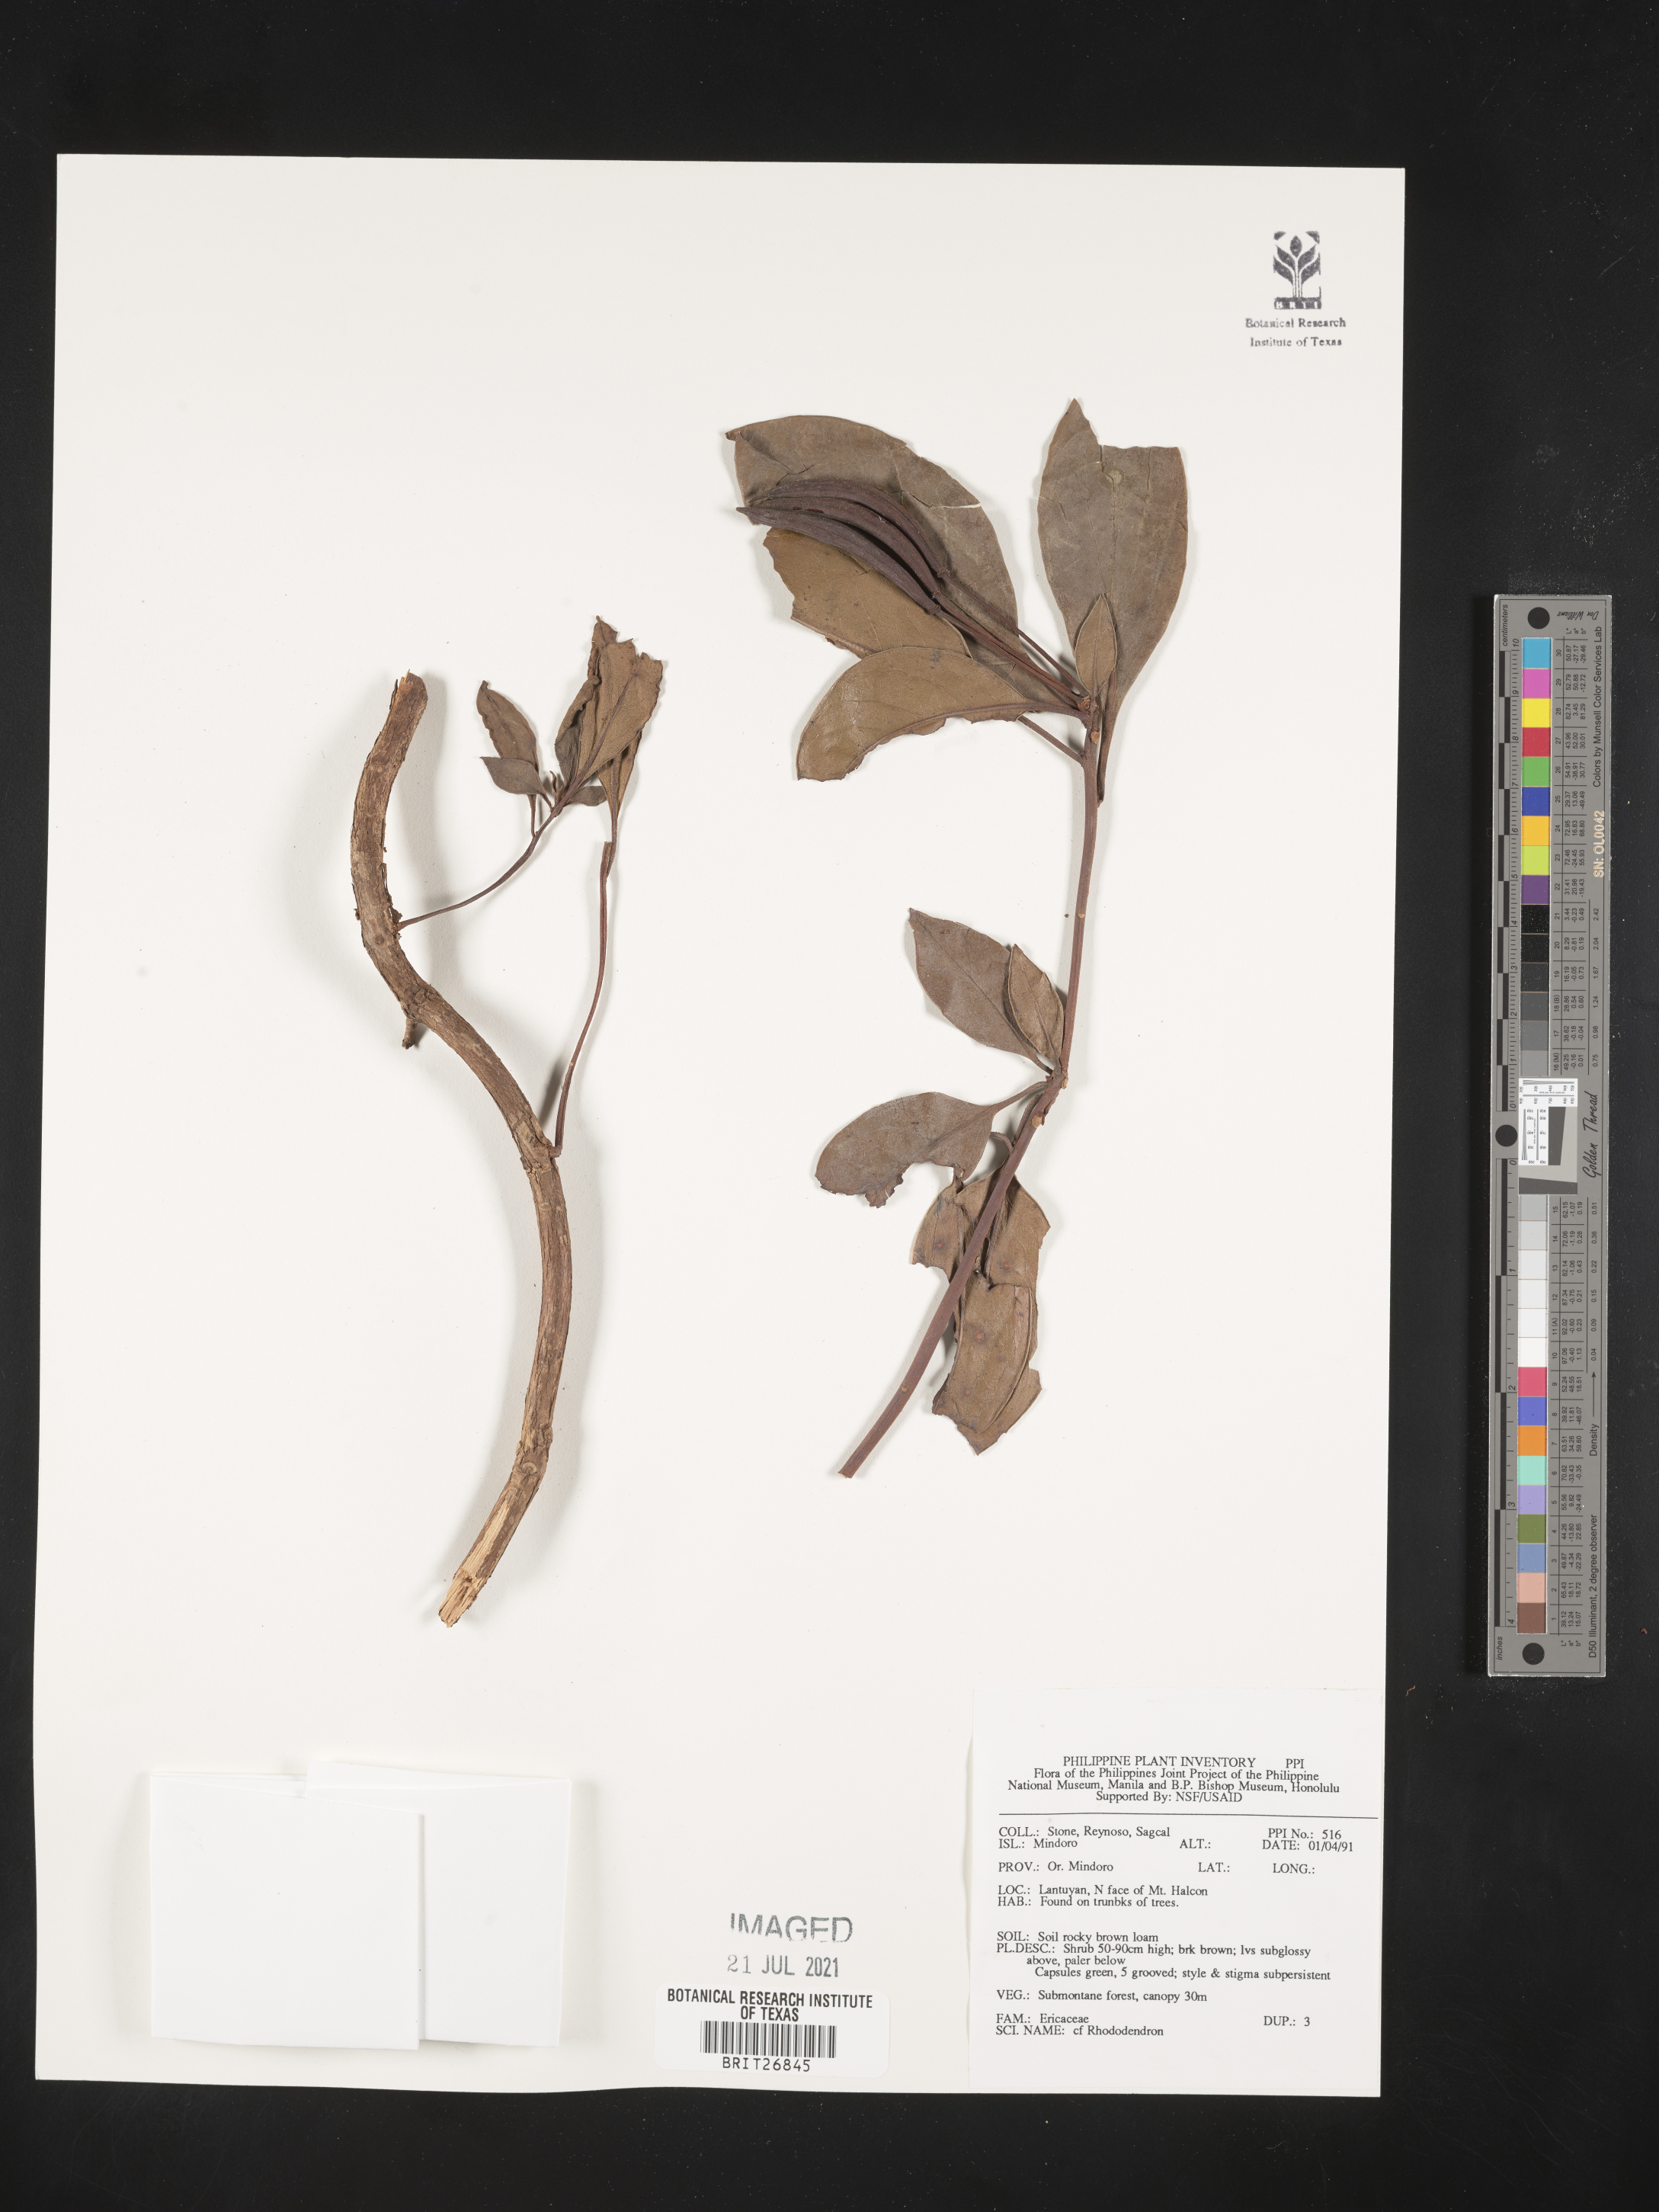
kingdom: Plantae
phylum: Tracheophyta
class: Magnoliopsida
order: Ericales
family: Ericaceae
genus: Rhododendron
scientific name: Rhododendron
